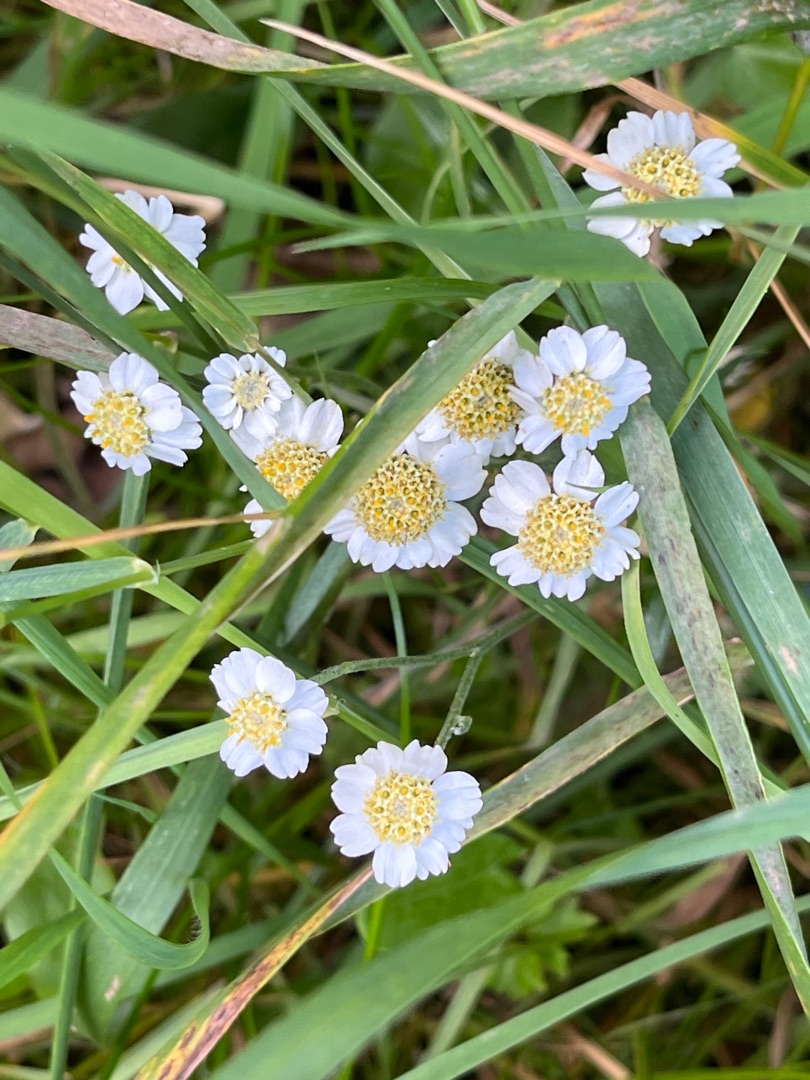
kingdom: Plantae
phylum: Tracheophyta
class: Magnoliopsida
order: Asterales
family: Asteraceae
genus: Achillea
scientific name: Achillea ptarmica
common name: Nyse-røllike
